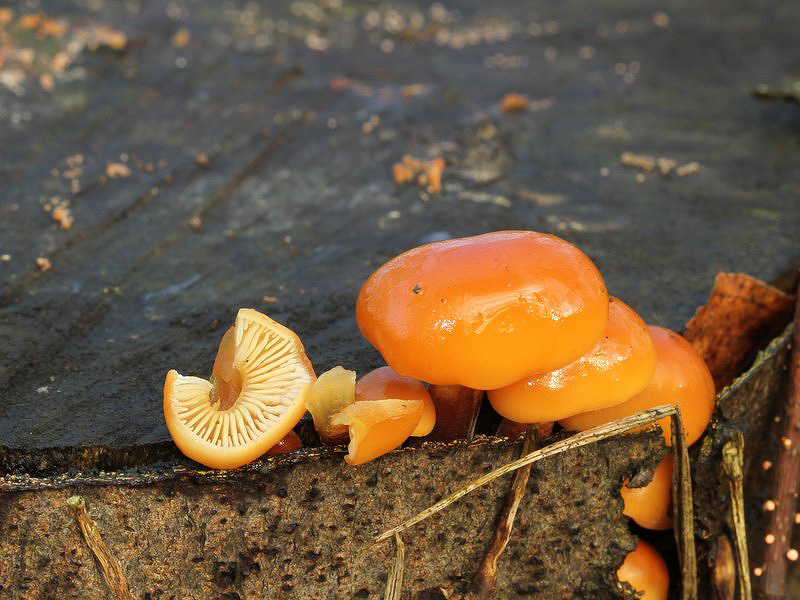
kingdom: Fungi
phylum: Basidiomycota
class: Agaricomycetes
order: Agaricales
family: Physalacriaceae
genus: Flammulina
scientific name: Flammulina velutipes
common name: gul fløjlsfod
